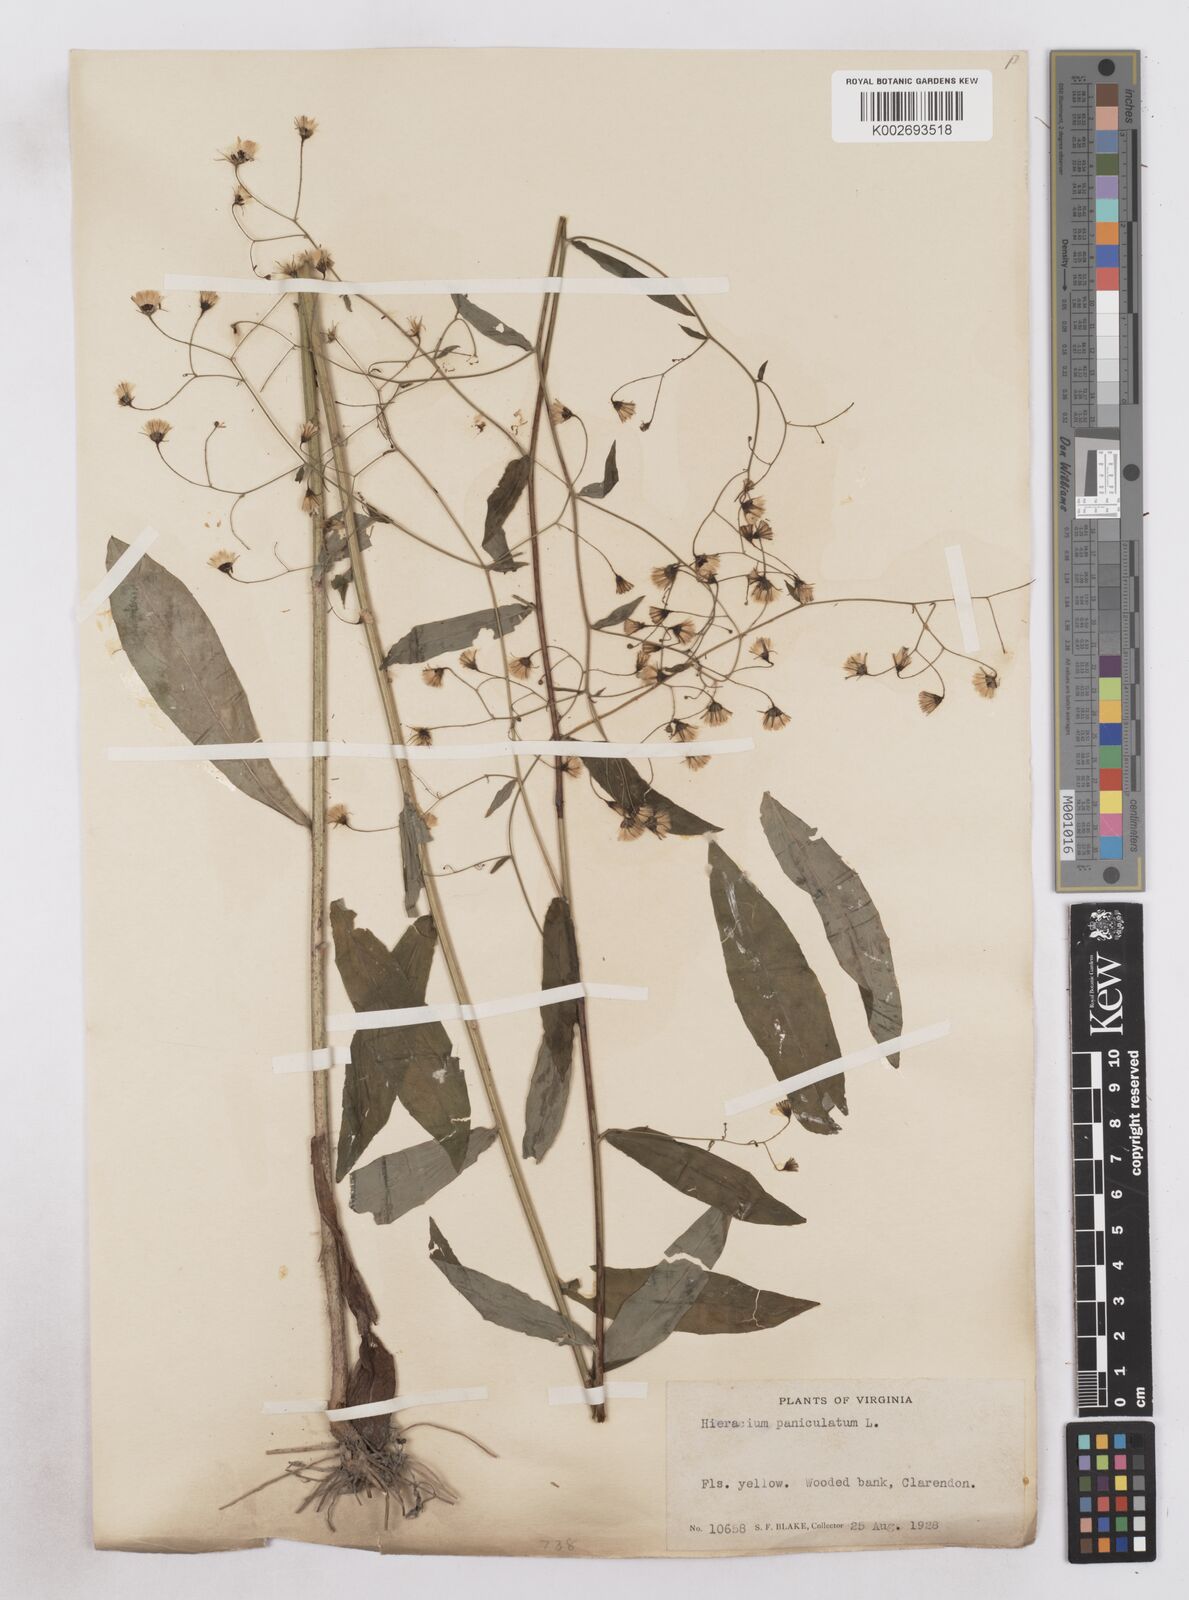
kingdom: Plantae
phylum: Tracheophyta
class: Magnoliopsida
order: Asterales
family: Asteraceae
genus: Hieracium
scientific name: Hieracium paniculatum
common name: Allegheny hawkweed
